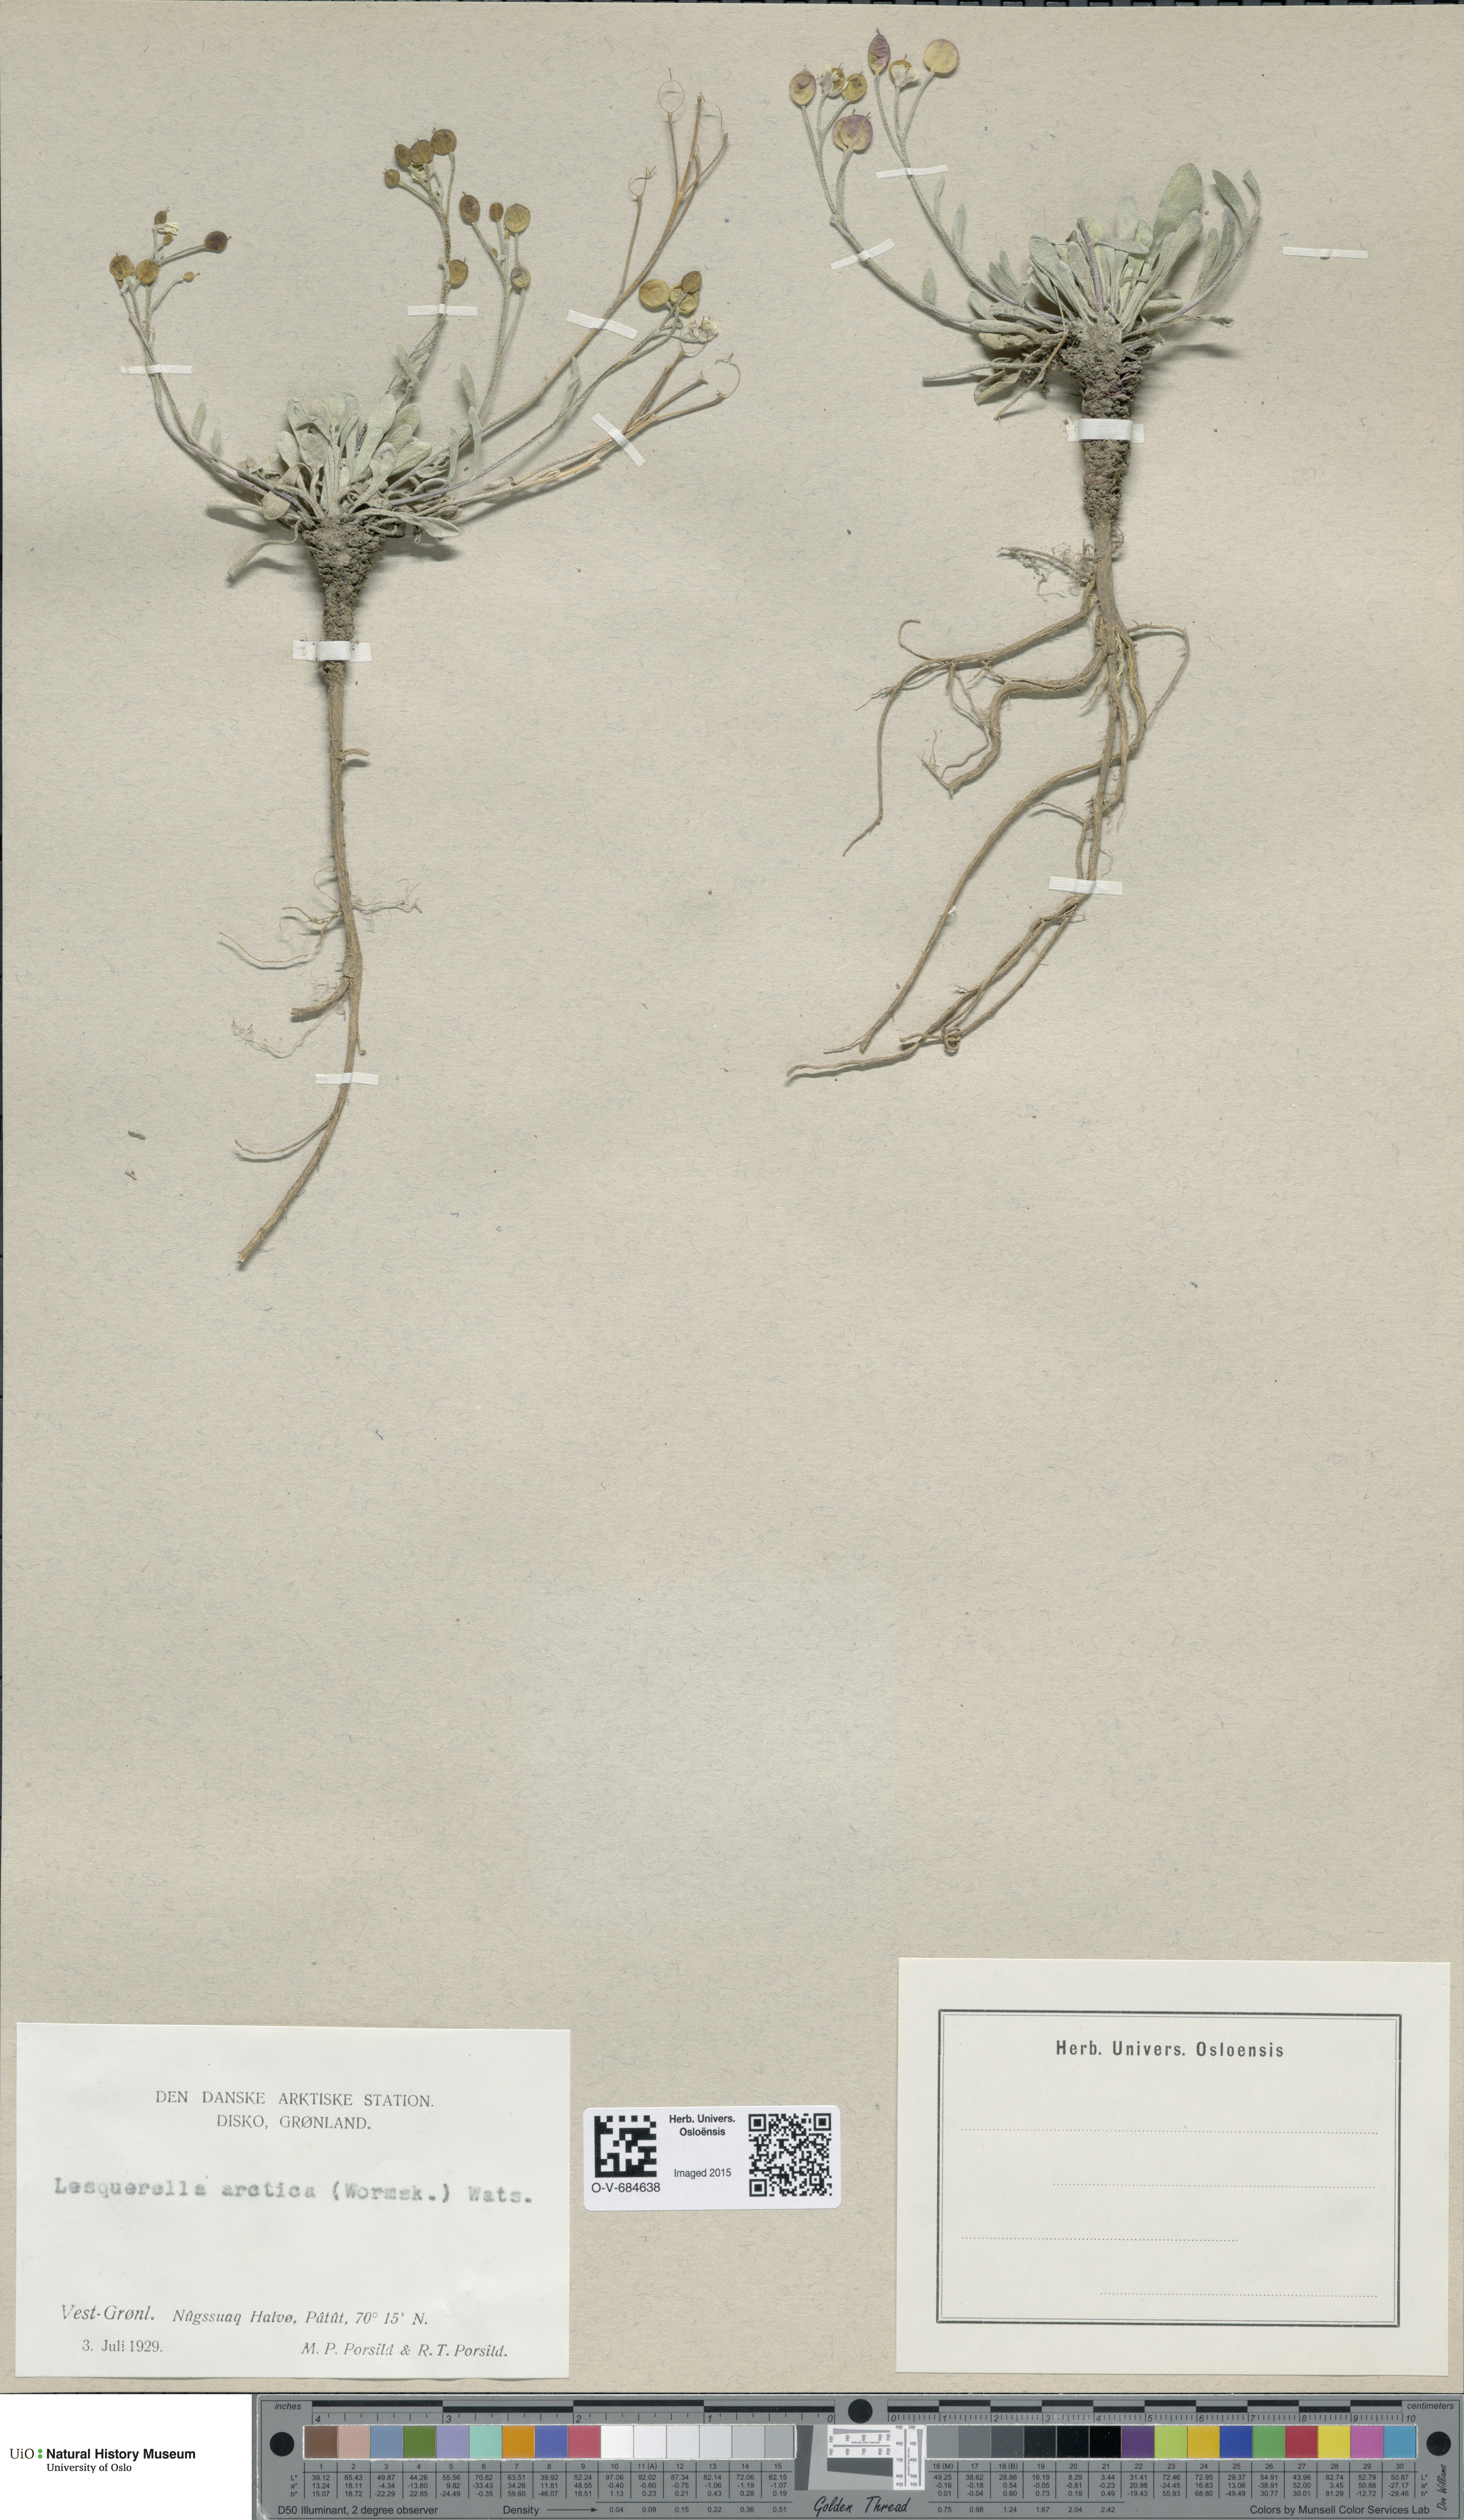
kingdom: Plantae
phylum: Tracheophyta
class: Magnoliopsida
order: Brassicales
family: Brassicaceae
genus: Physaria
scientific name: Physaria arctica
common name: Arctic bladderpod
